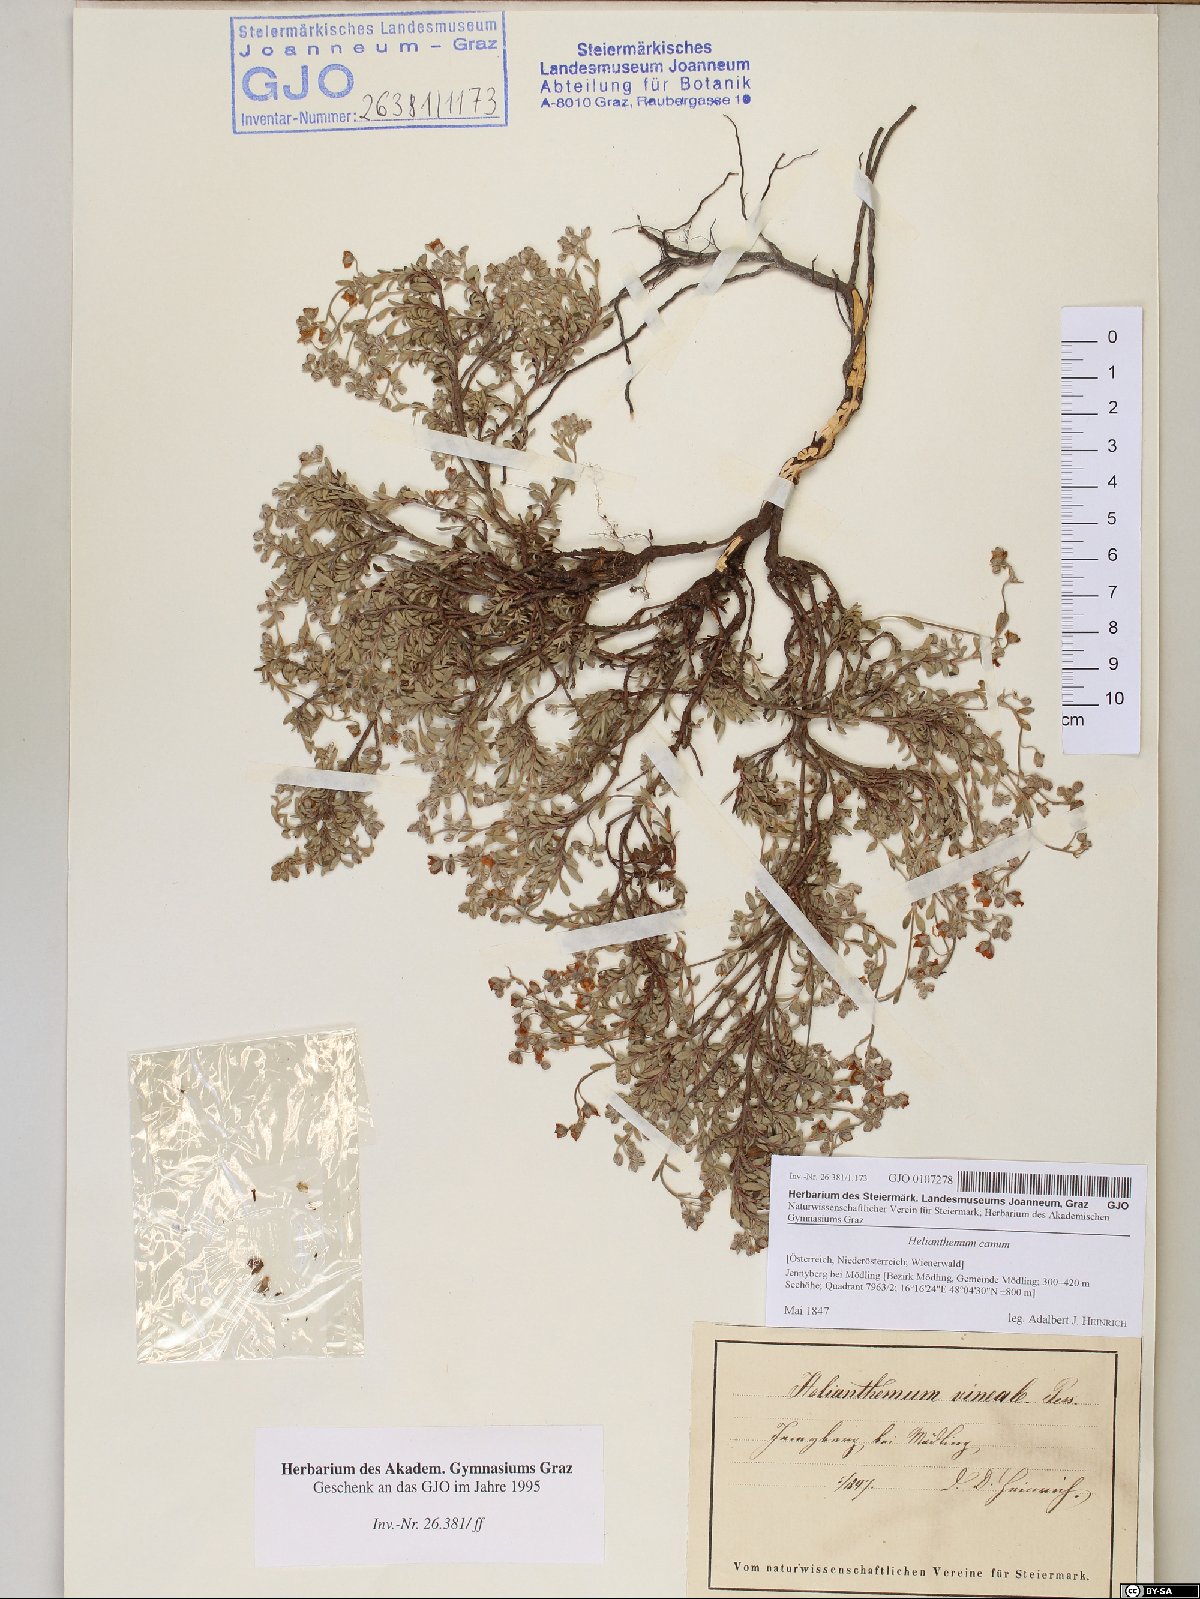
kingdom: Plantae
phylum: Tracheophyta
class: Magnoliopsida
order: Malvales
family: Cistaceae
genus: Helianthemum
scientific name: Helianthemum canum
